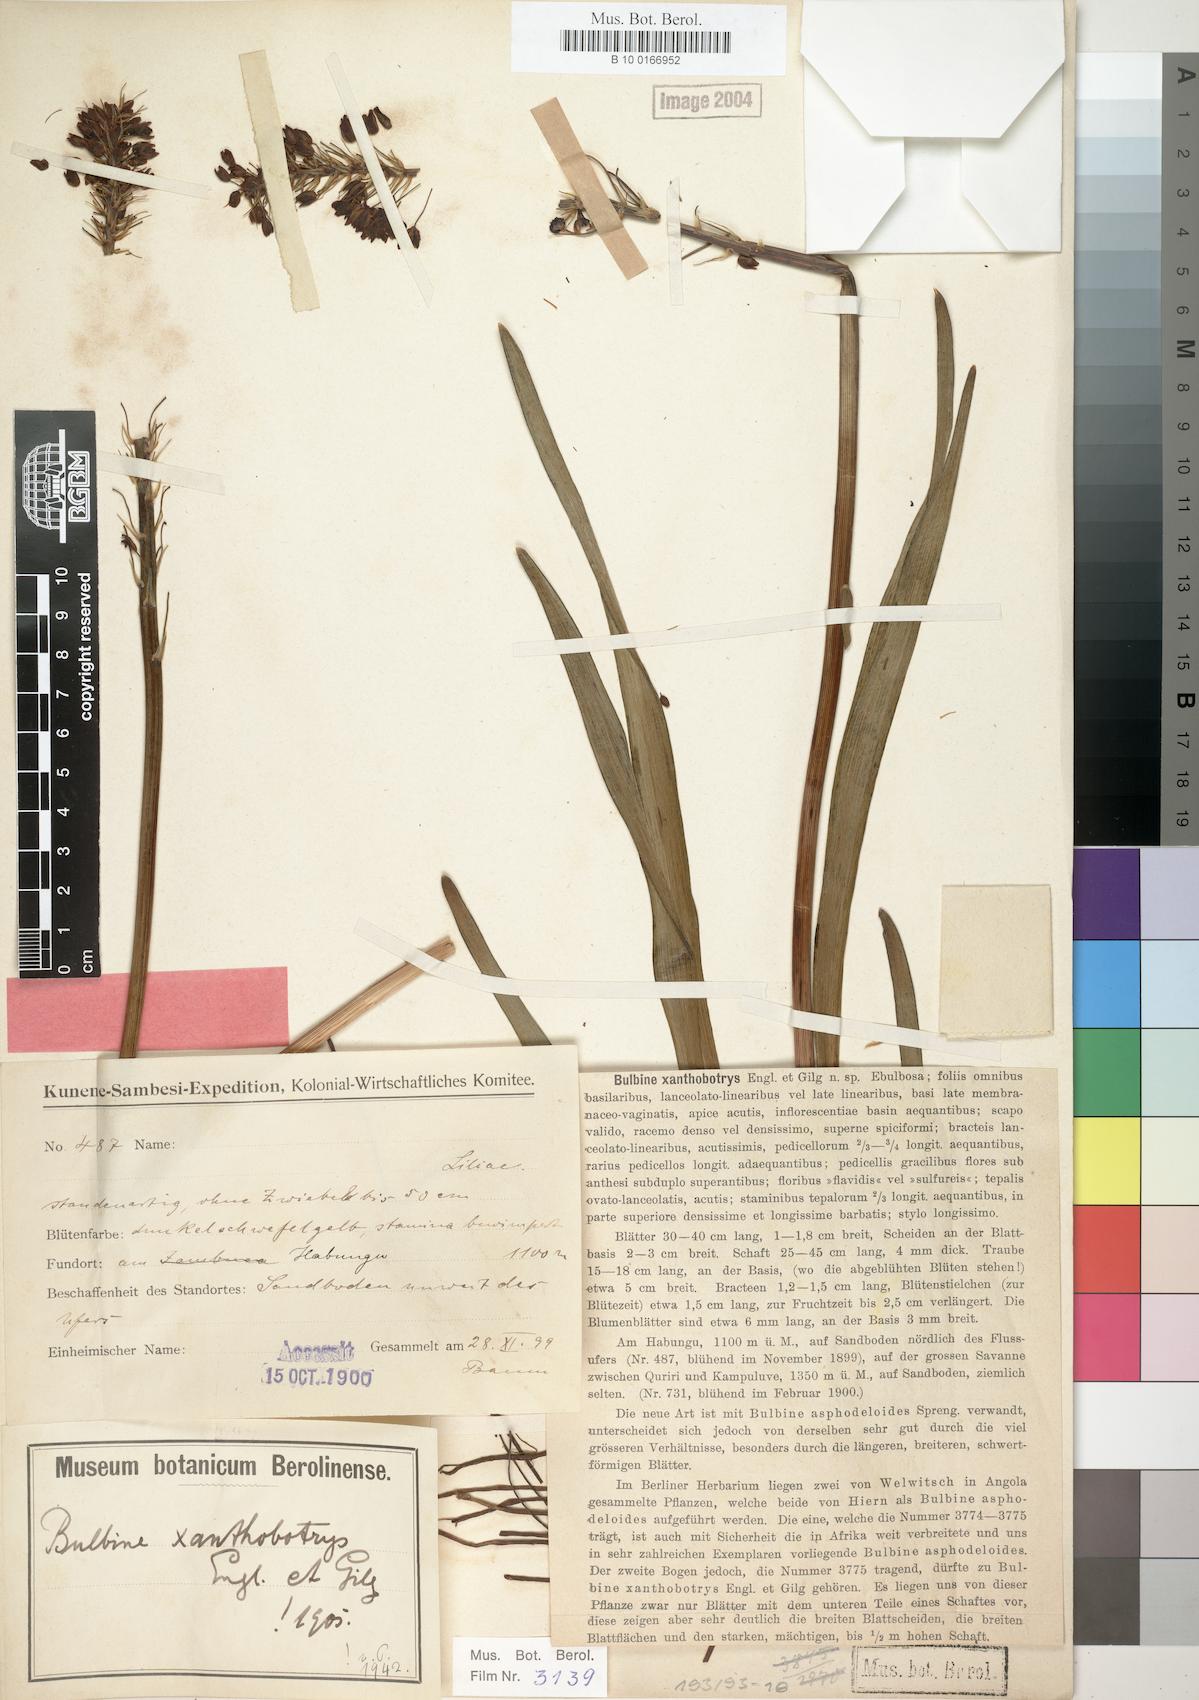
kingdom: Plantae
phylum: Tracheophyta
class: Liliopsida
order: Asparagales
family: Asphodelaceae
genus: Bulbine
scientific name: Bulbine abyssinica
